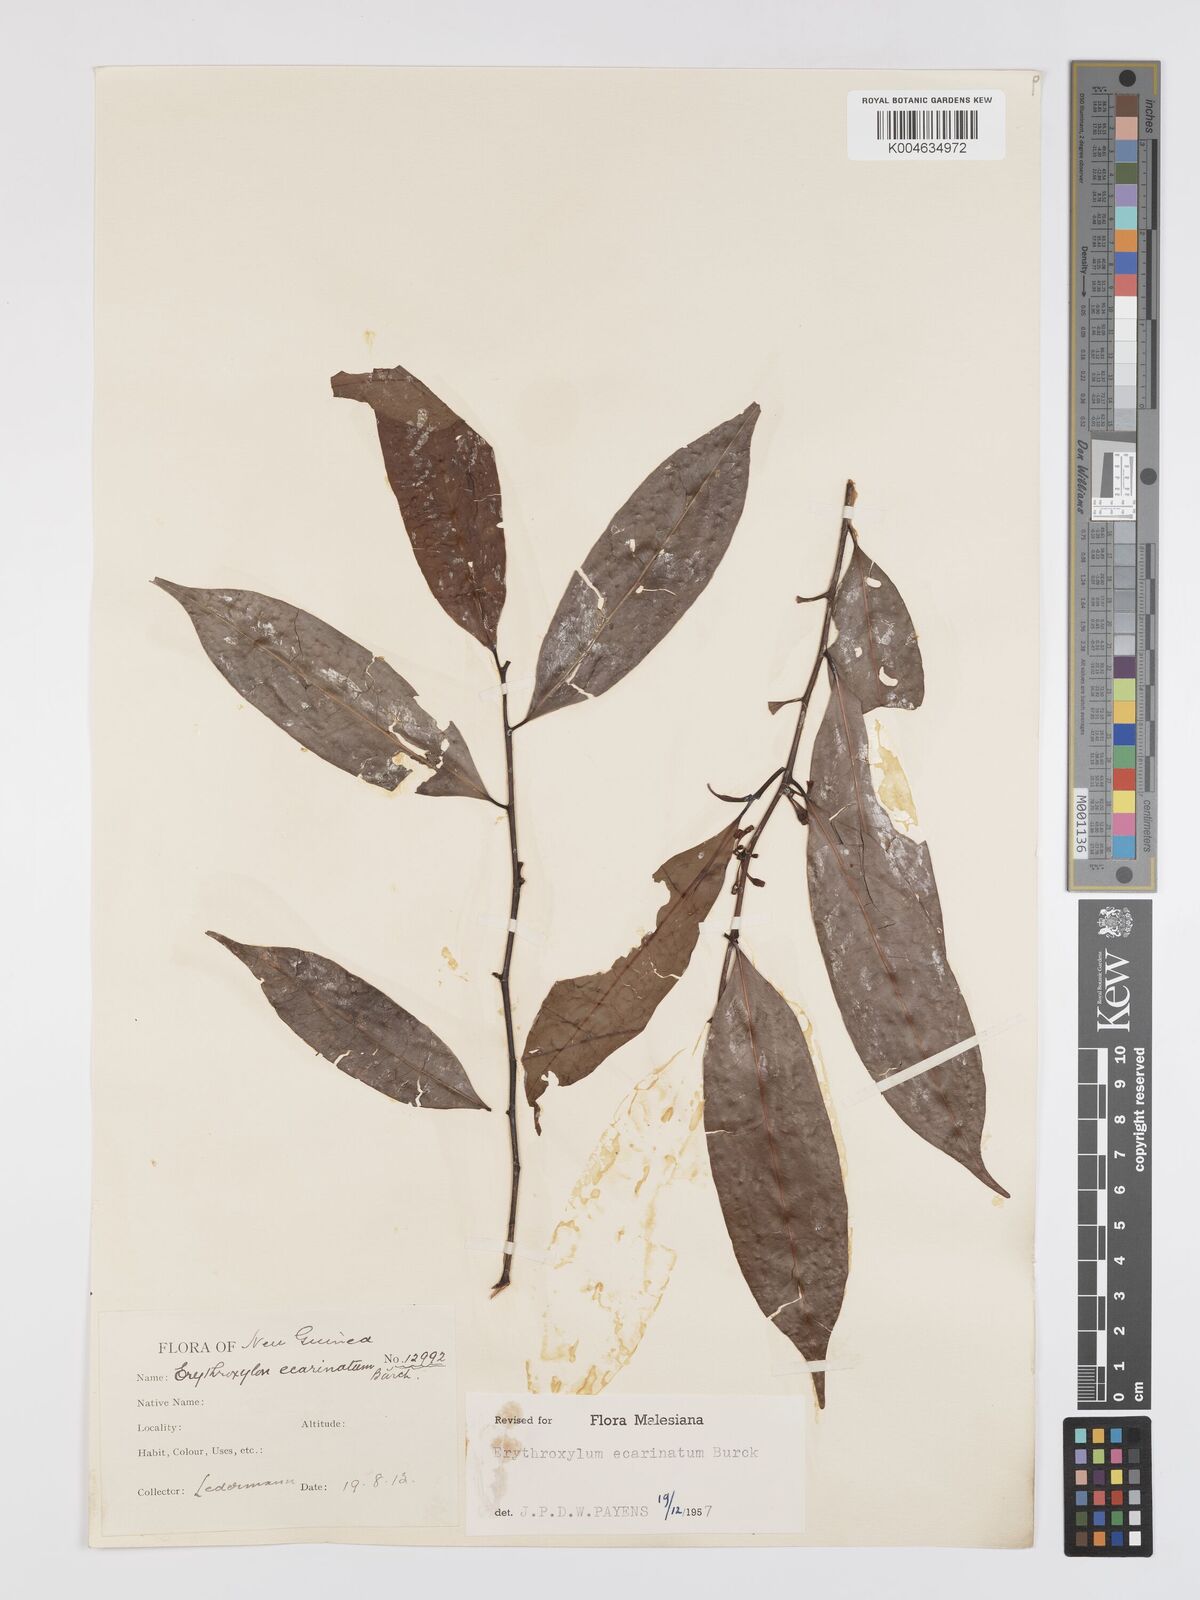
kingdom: Plantae
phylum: Tracheophyta
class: Magnoliopsida
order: Malpighiales
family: Erythroxylaceae
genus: Erythroxylum
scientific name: Erythroxylum ecarinatum
